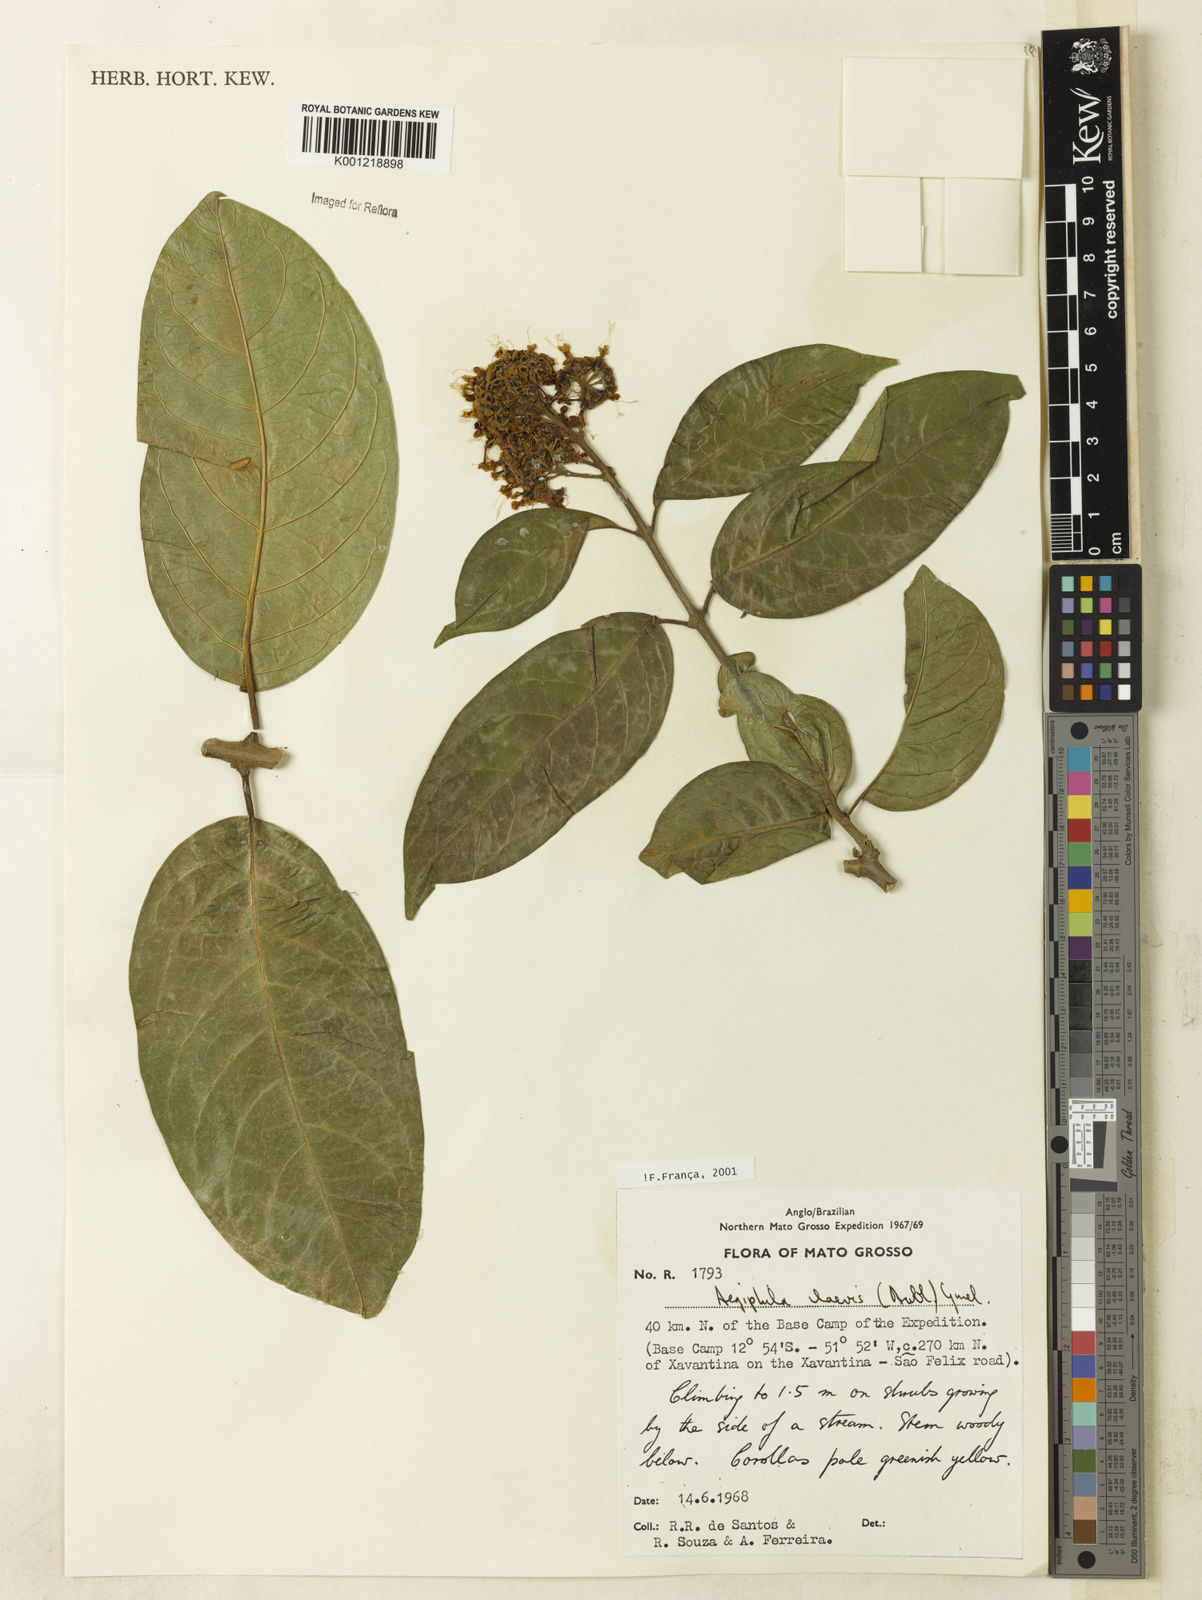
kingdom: Plantae
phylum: Tracheophyta
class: Magnoliopsida
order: Lamiales
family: Lamiaceae
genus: Aegiphila
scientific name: Aegiphila laevis
